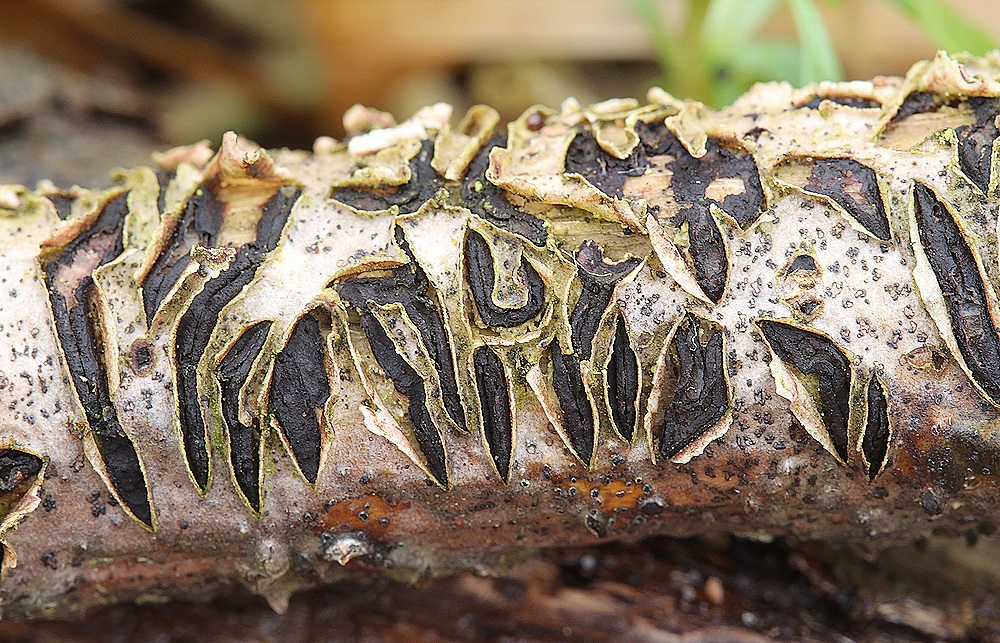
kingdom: Fungi
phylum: Ascomycota
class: Leotiomycetes
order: Rhytismatales
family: Rhytismataceae
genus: Colpoma
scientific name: Colpoma quercinum
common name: ege-sprækkeskive
